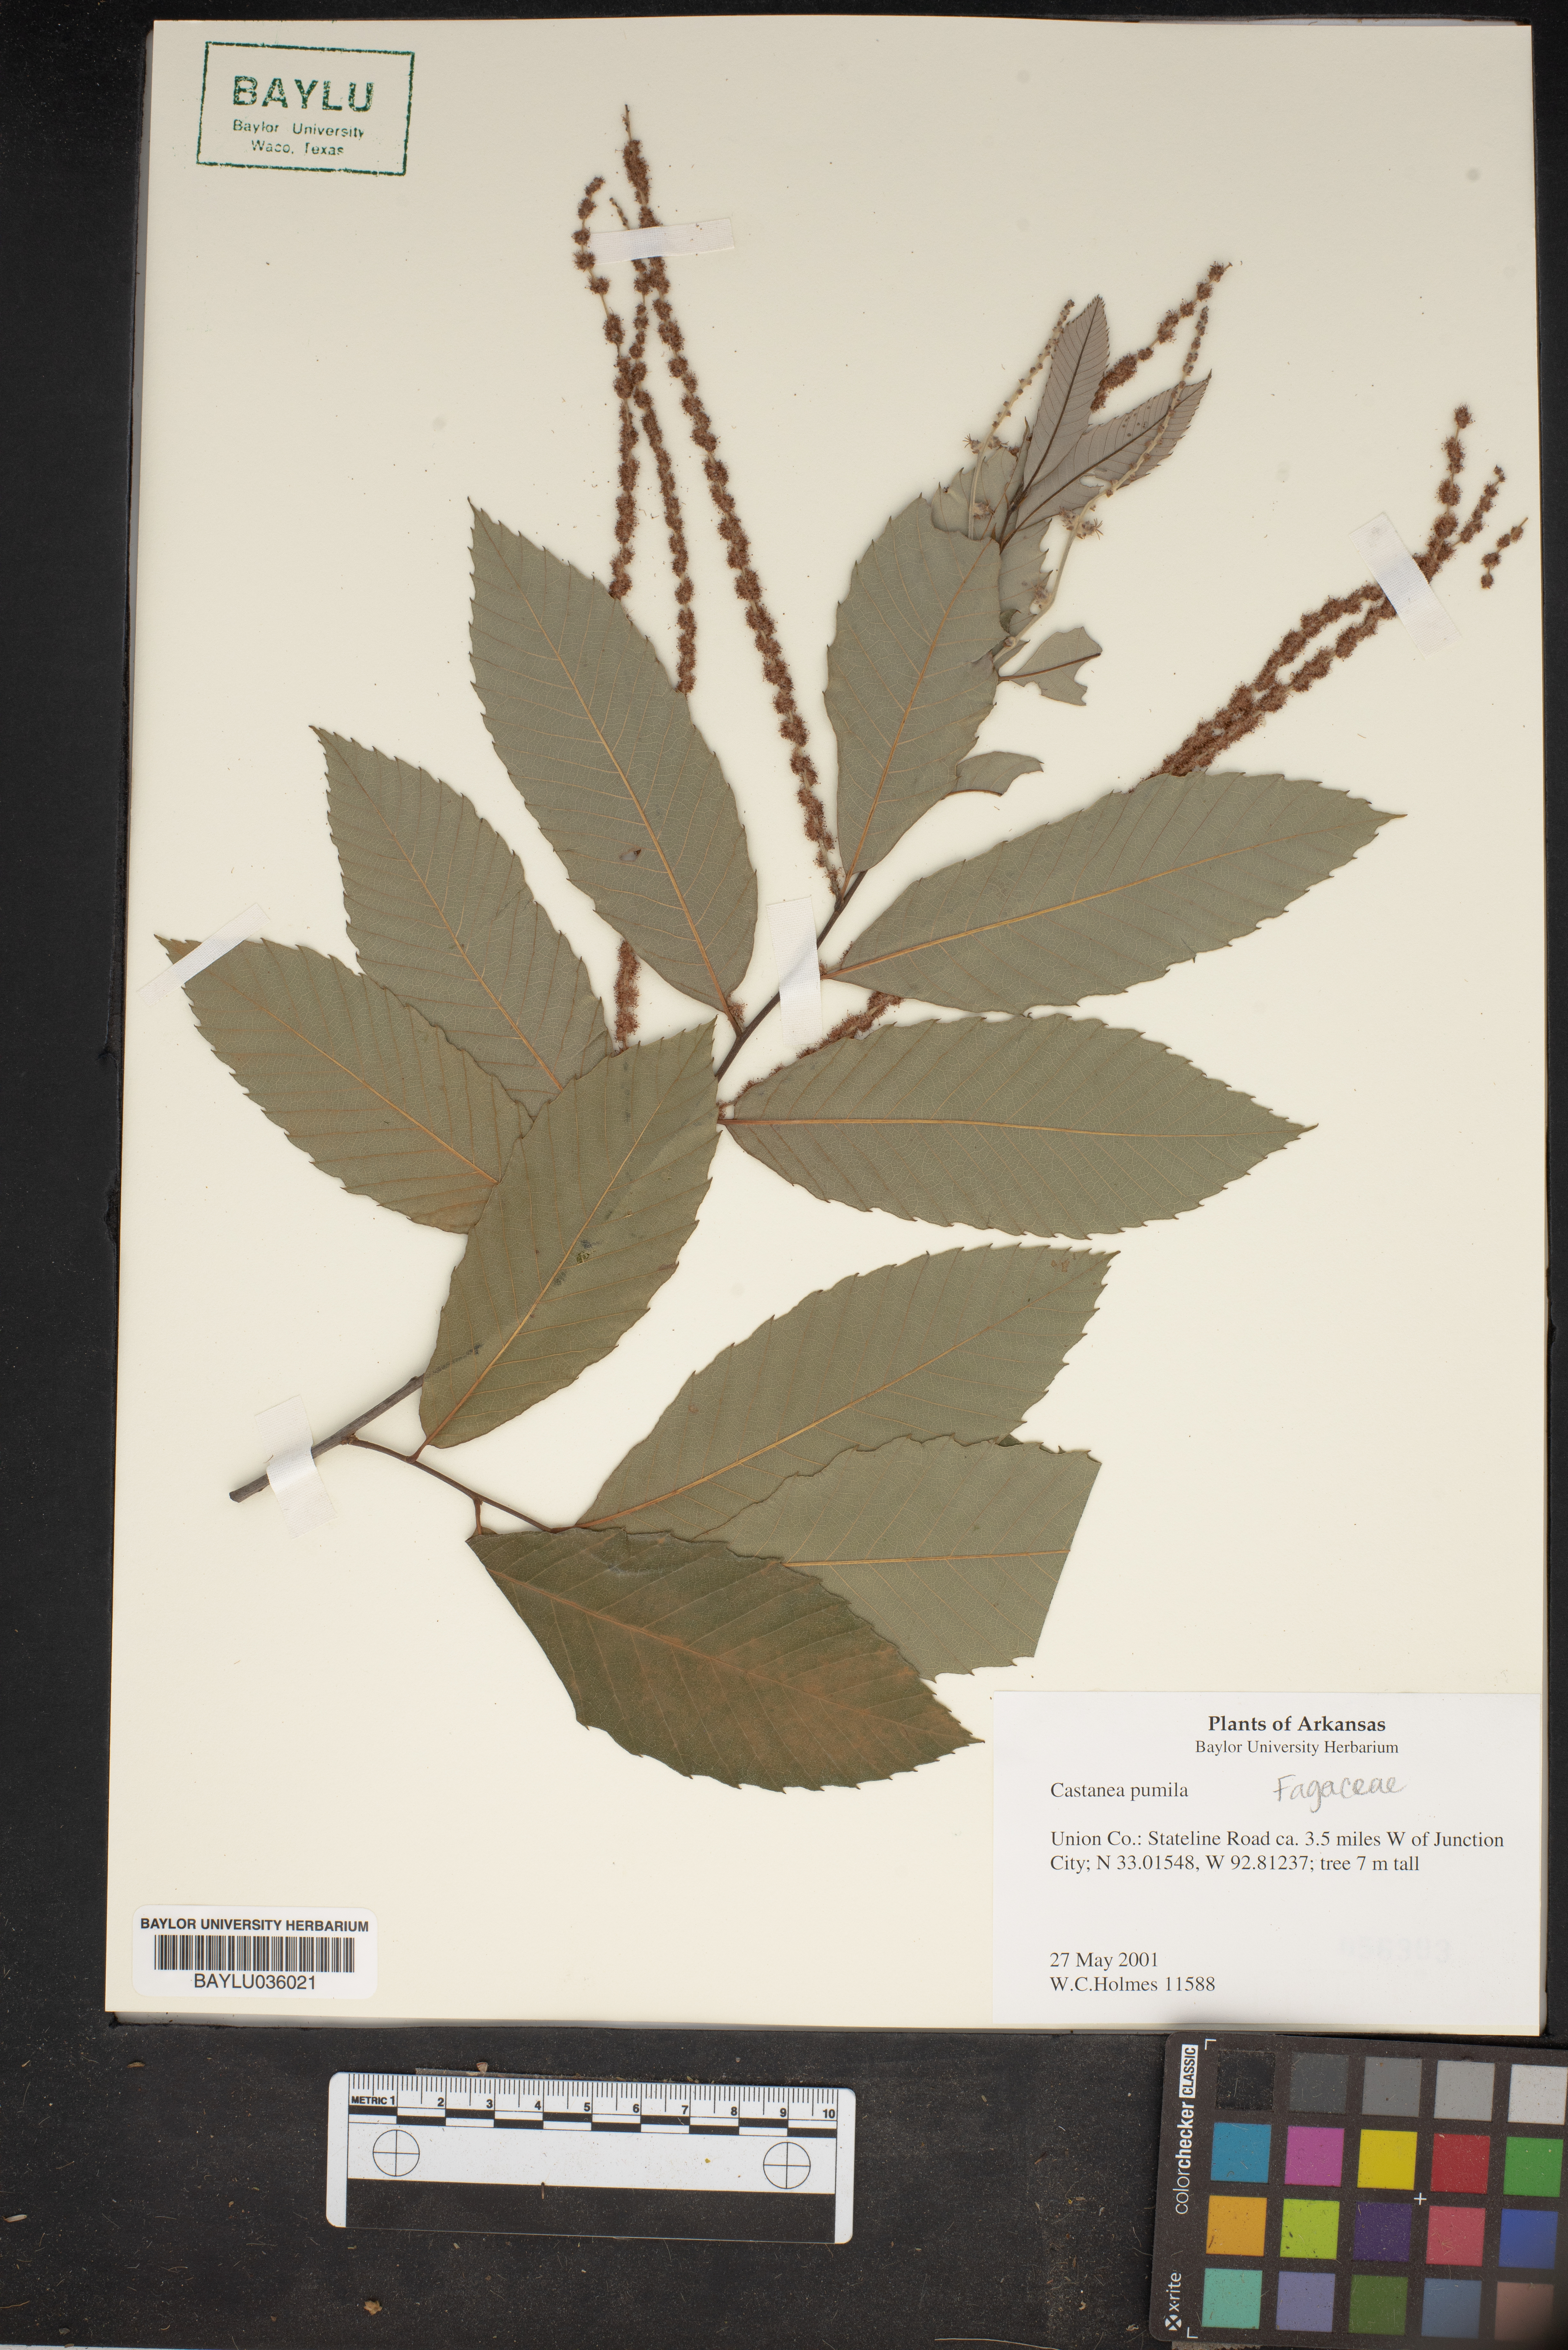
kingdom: Plantae
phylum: Tracheophyta
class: Magnoliopsida
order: Fagales
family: Fagaceae
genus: Castanea
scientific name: Castanea pumila
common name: Chinkapin
